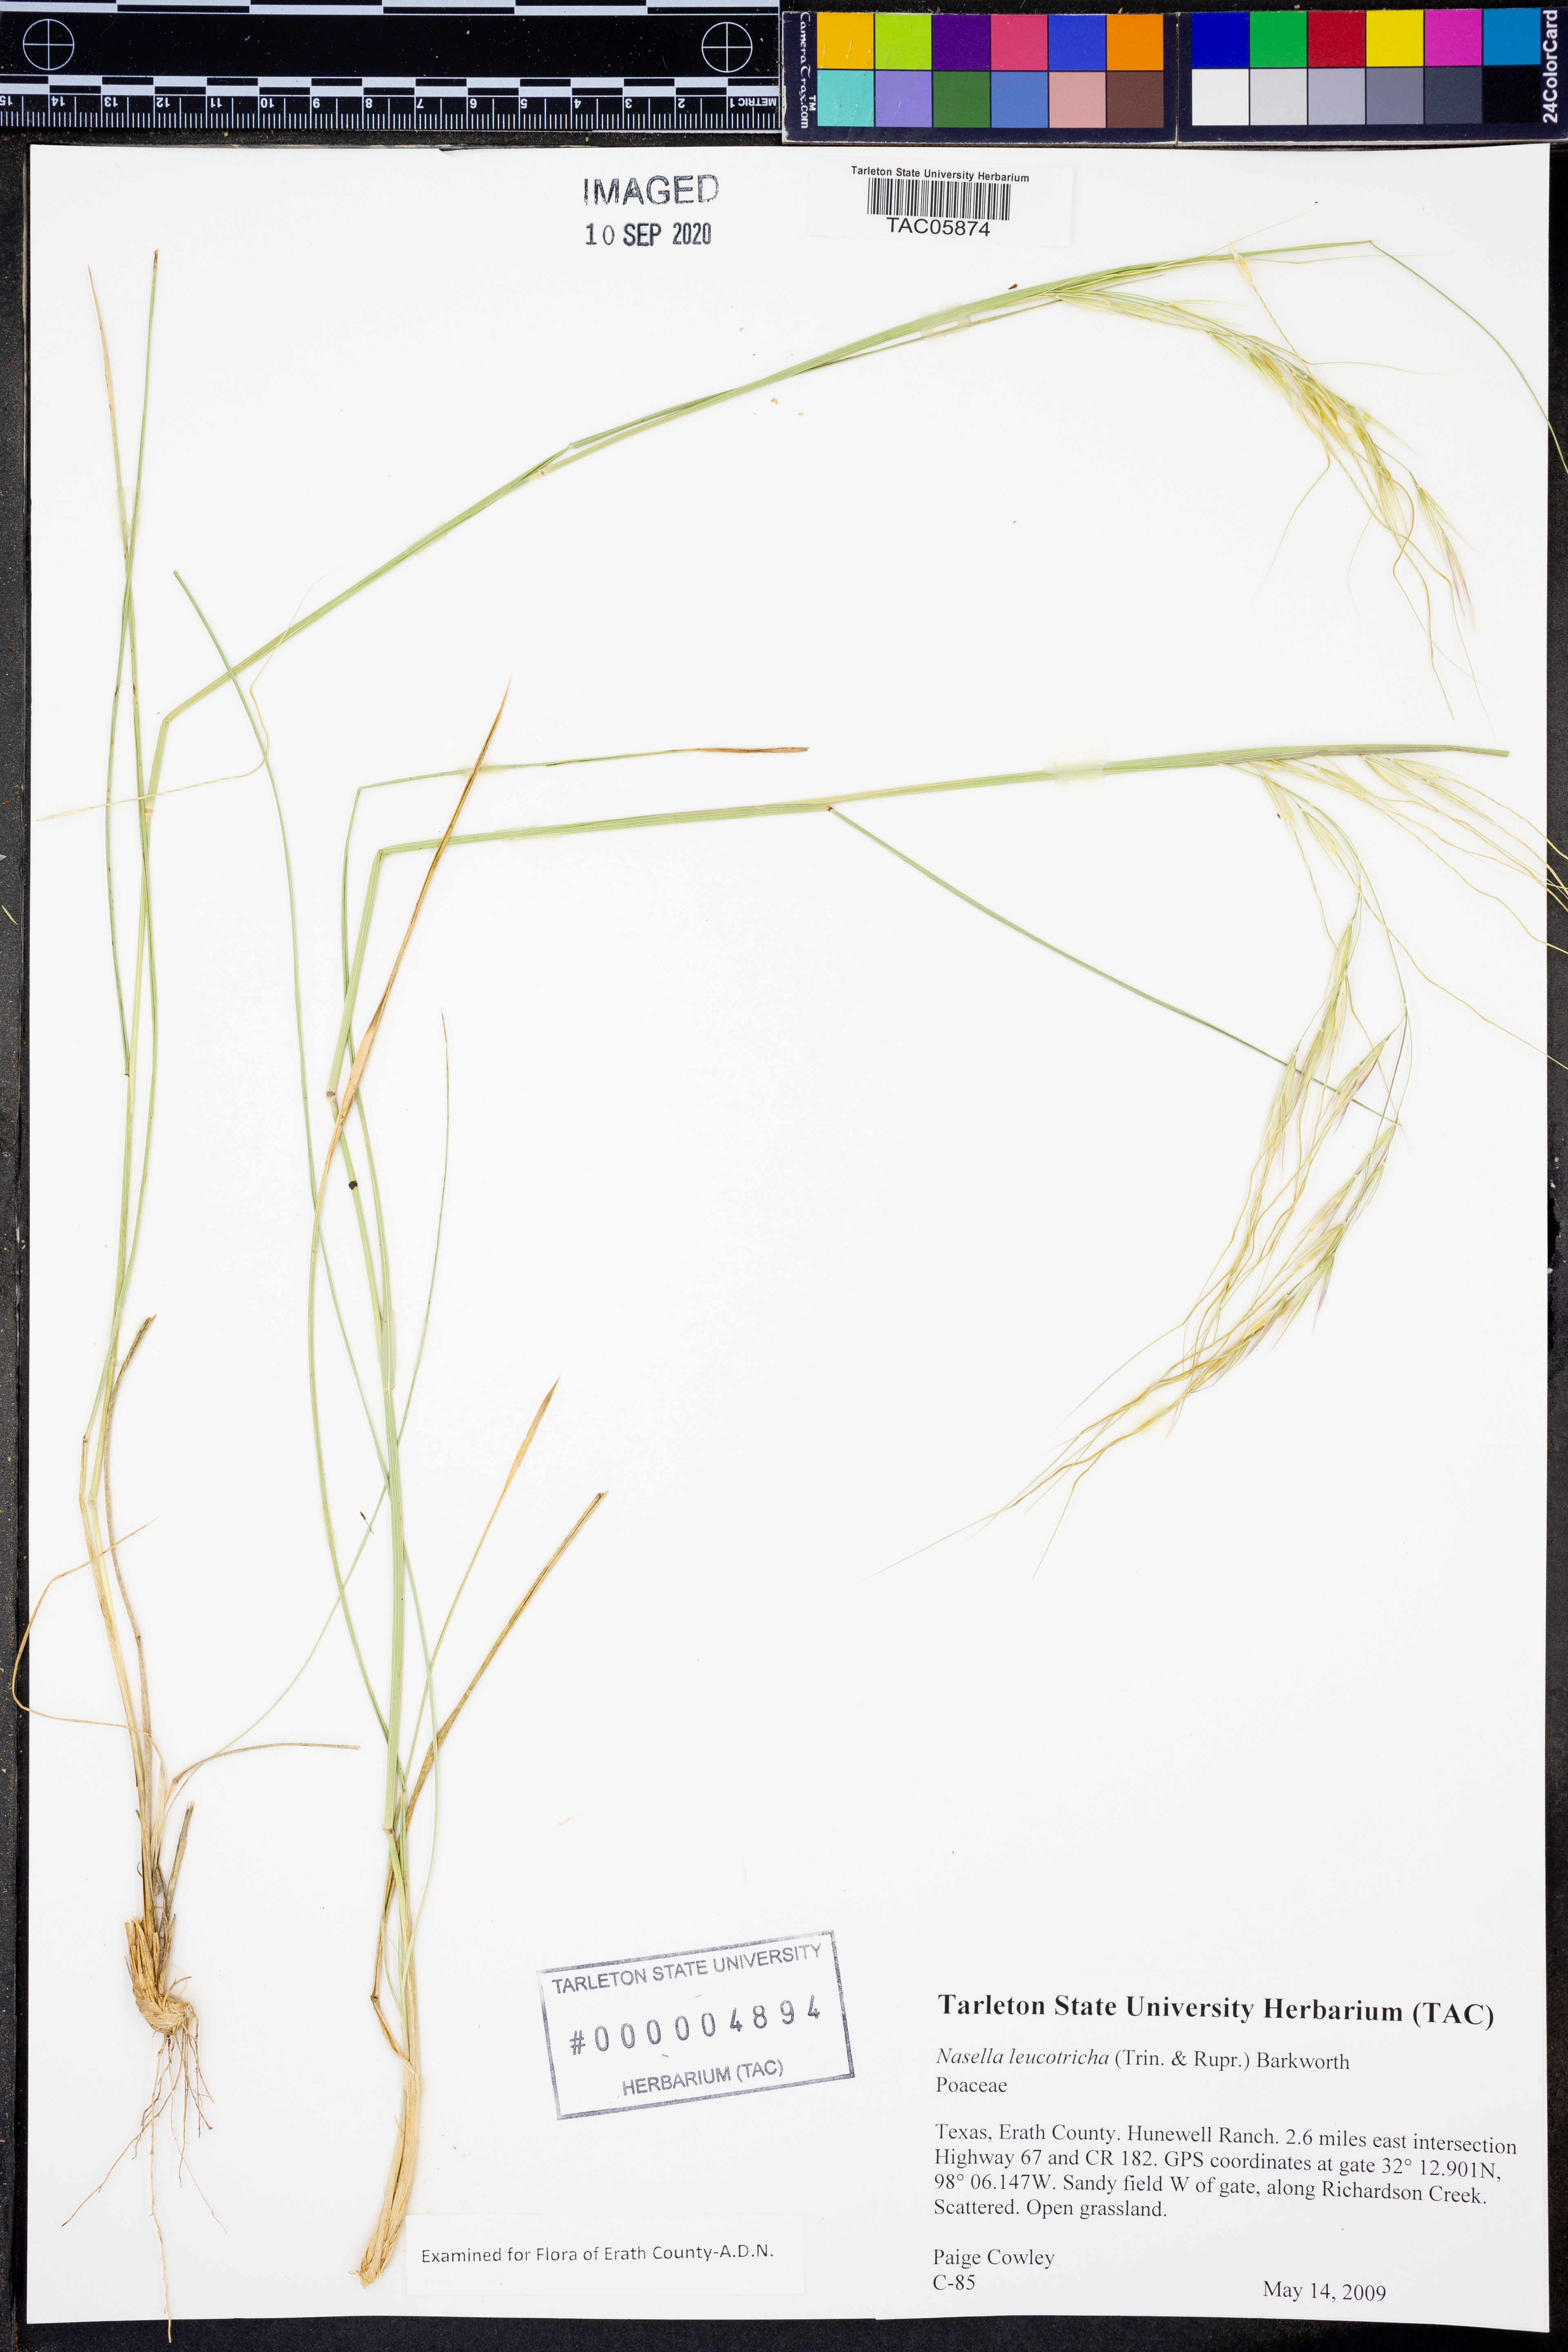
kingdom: Plantae
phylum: Tracheophyta
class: Liliopsida
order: Poales
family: Poaceae
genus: Nassella
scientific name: Nassella leucotricha
